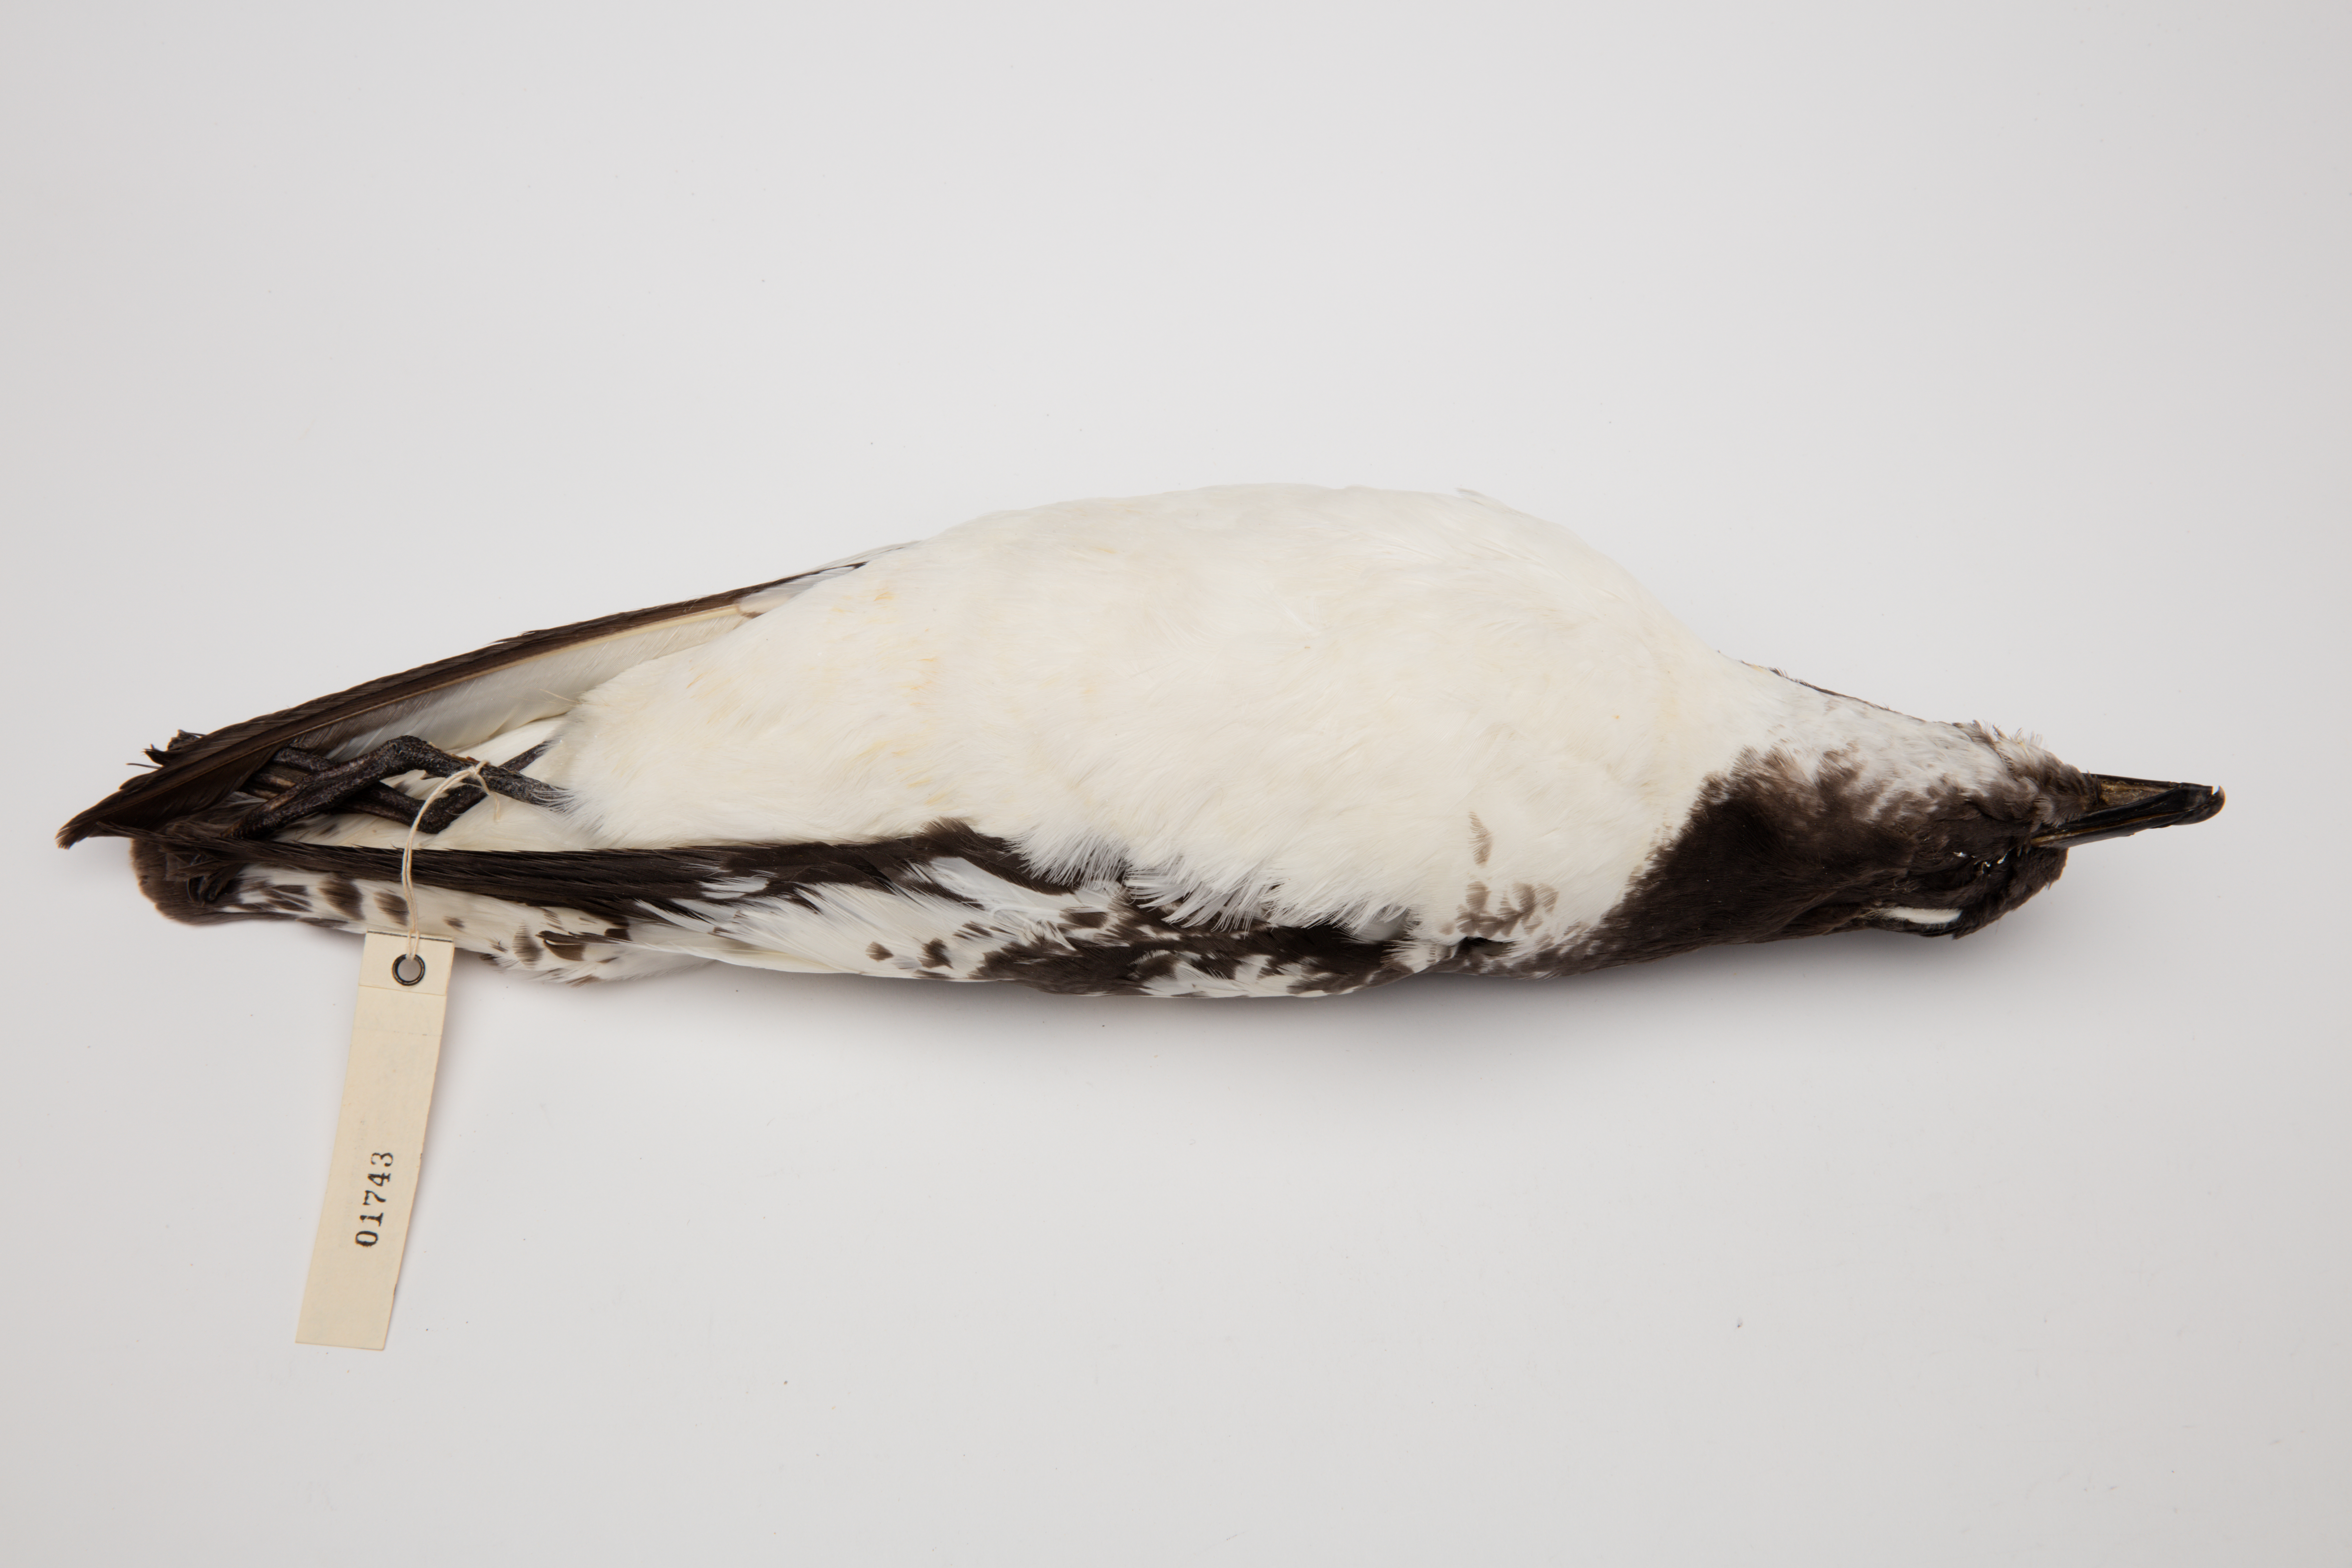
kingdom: Animalia
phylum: Chordata
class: Aves
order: Procellariiformes
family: Procellariidae
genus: Daption
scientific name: Daption capense
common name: Cape petrel
